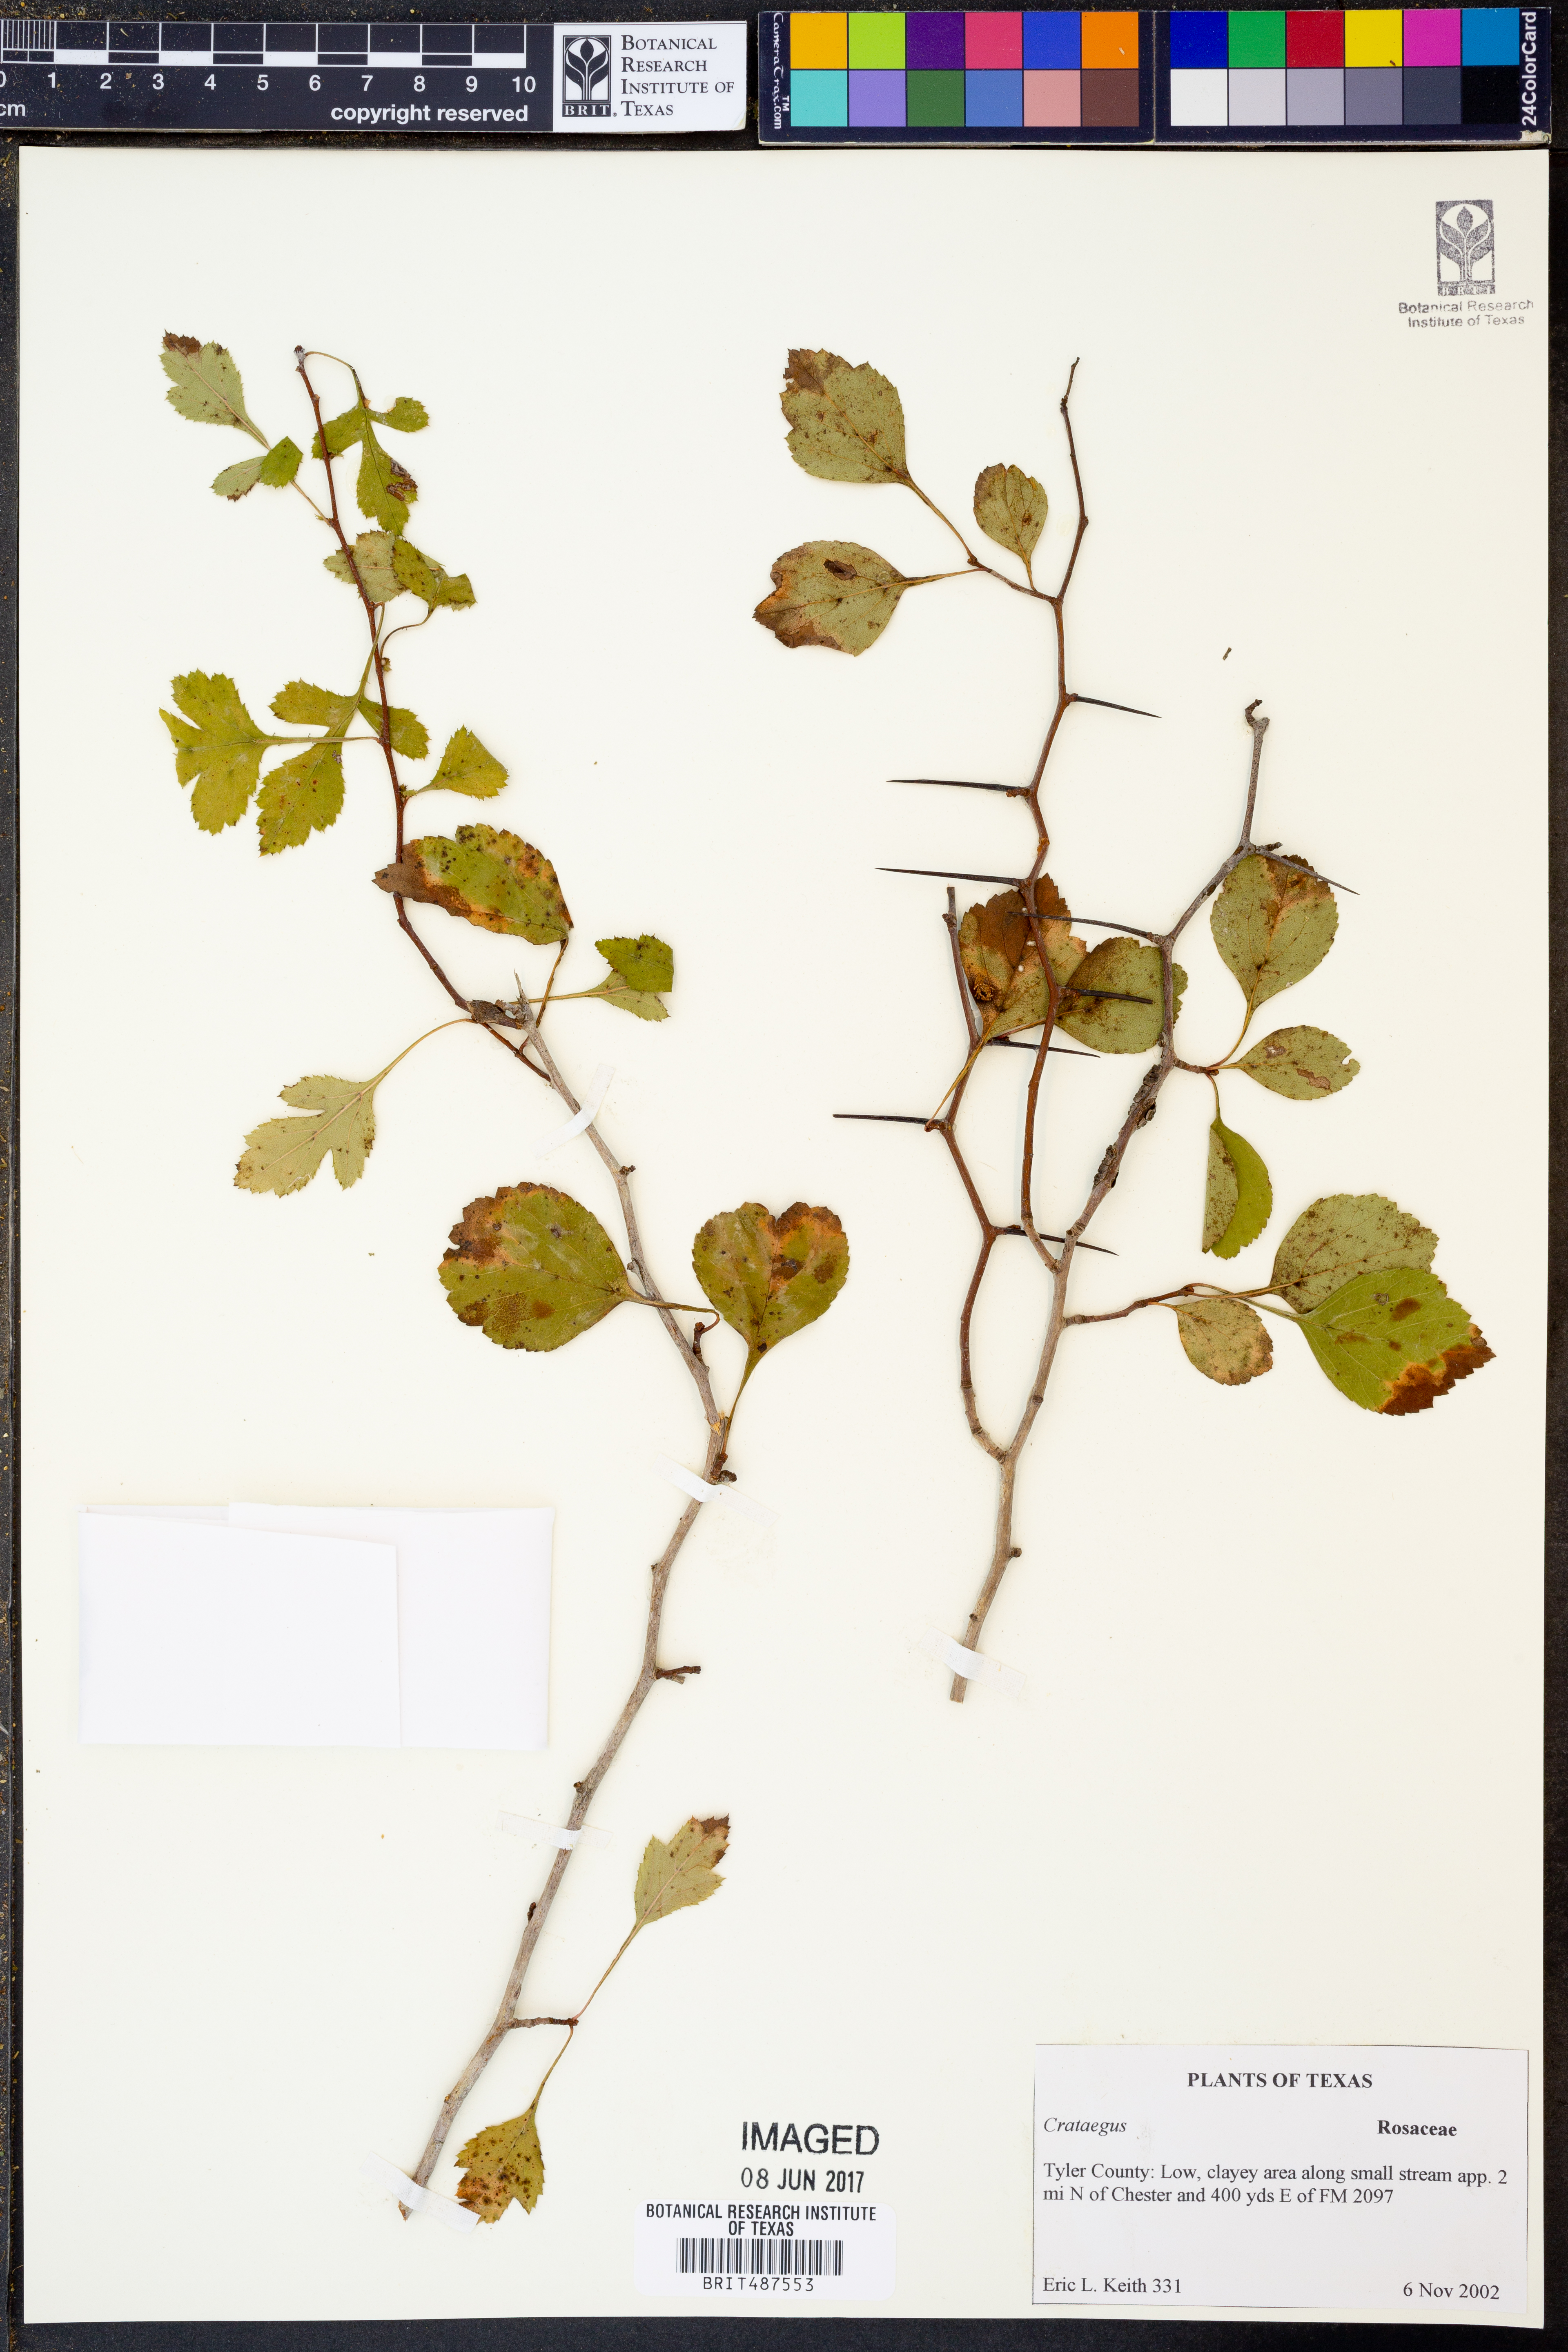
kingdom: Plantae
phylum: Tracheophyta
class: Magnoliopsida
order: Rosales
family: Rosaceae
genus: Crataegus
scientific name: Crataegus
